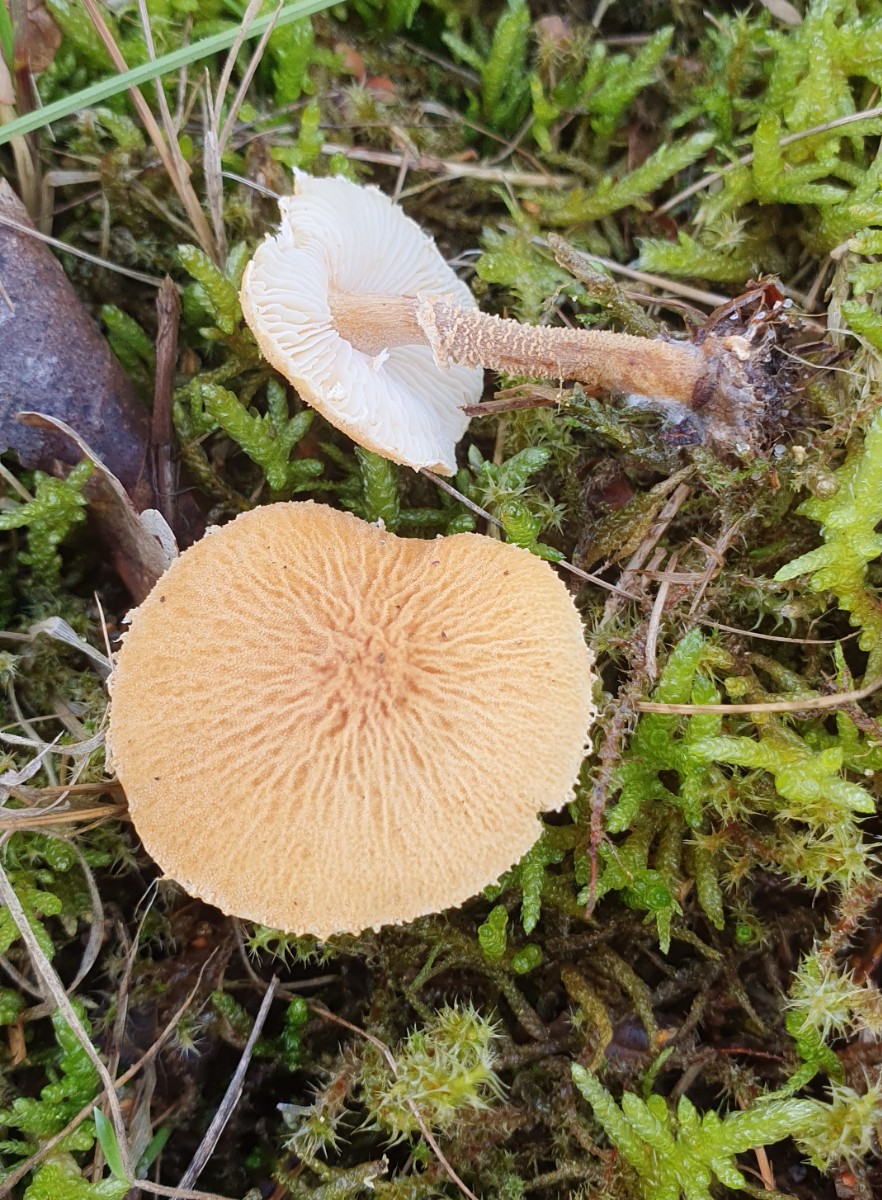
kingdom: Fungi
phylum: Basidiomycota
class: Agaricomycetes
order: Agaricales
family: Tricholomataceae
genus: Cystoderma
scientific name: Cystoderma amianthinum
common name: okkergul grynhat
